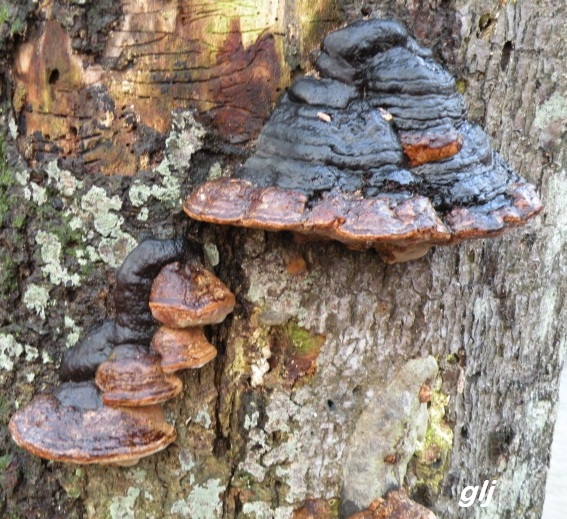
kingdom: Fungi
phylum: Basidiomycota
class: Agaricomycetes
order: Polyporales
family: Polyporaceae
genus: Fomes
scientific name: Fomes fomentarius
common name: tøndersvamp
